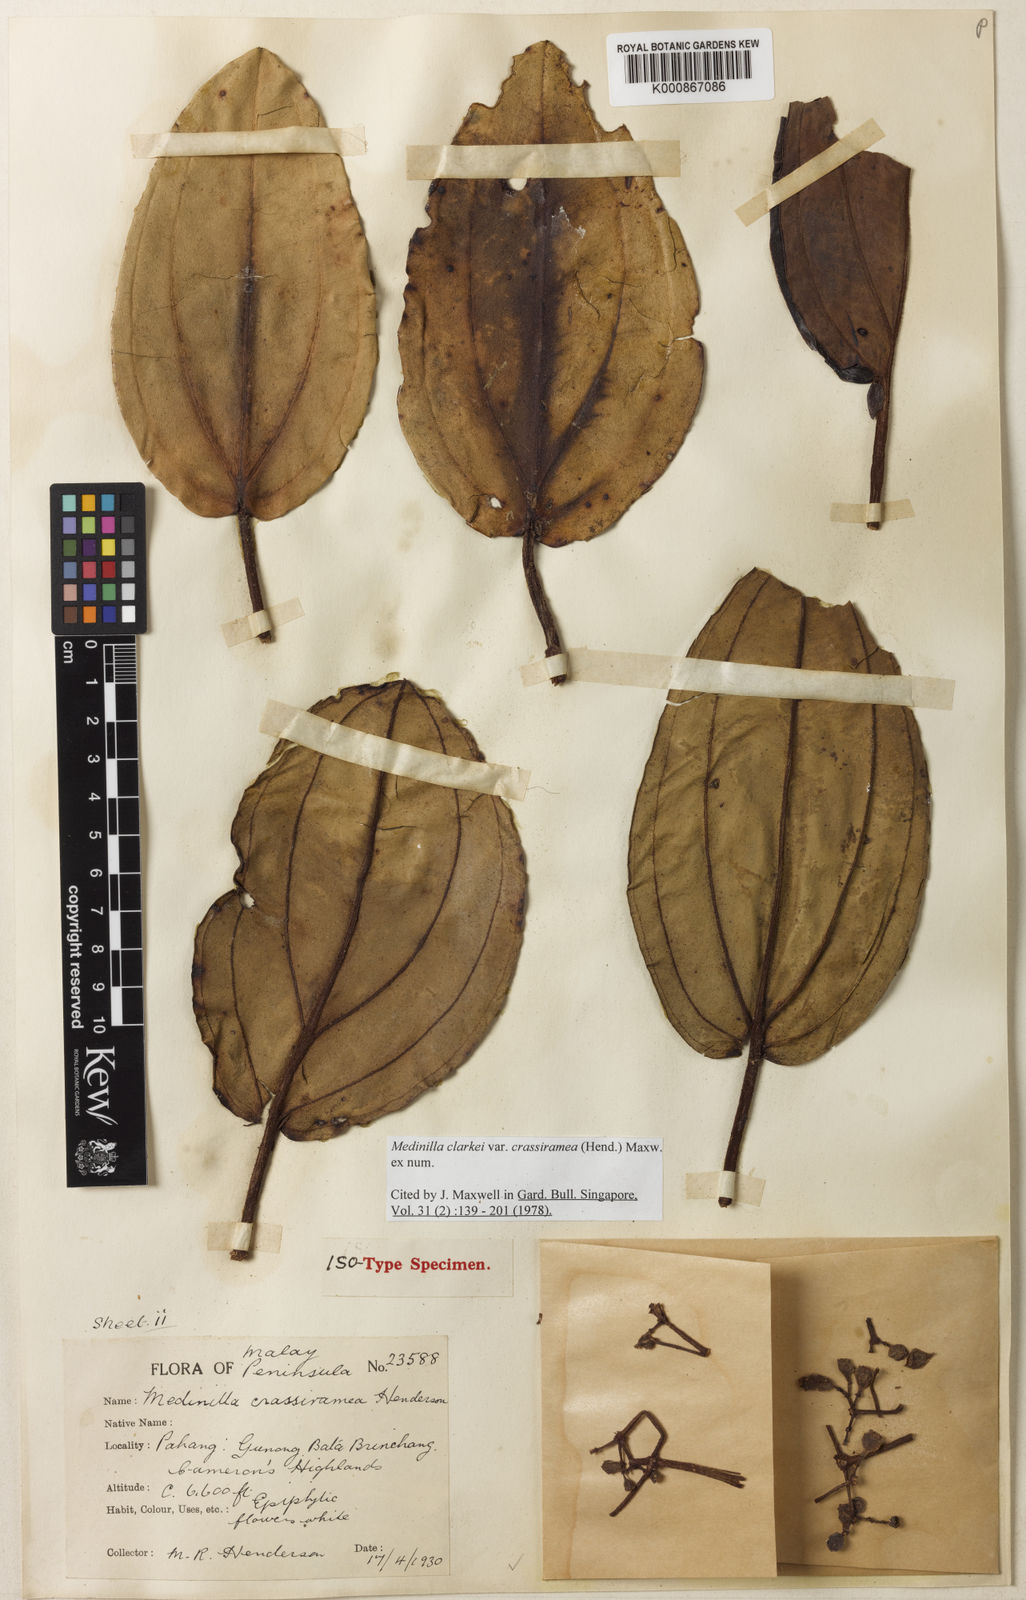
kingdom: Plantae
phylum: Tracheophyta
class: Magnoliopsida
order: Myrtales
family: Melastomataceae
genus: Medinilla
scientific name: Medinilla clarkei
